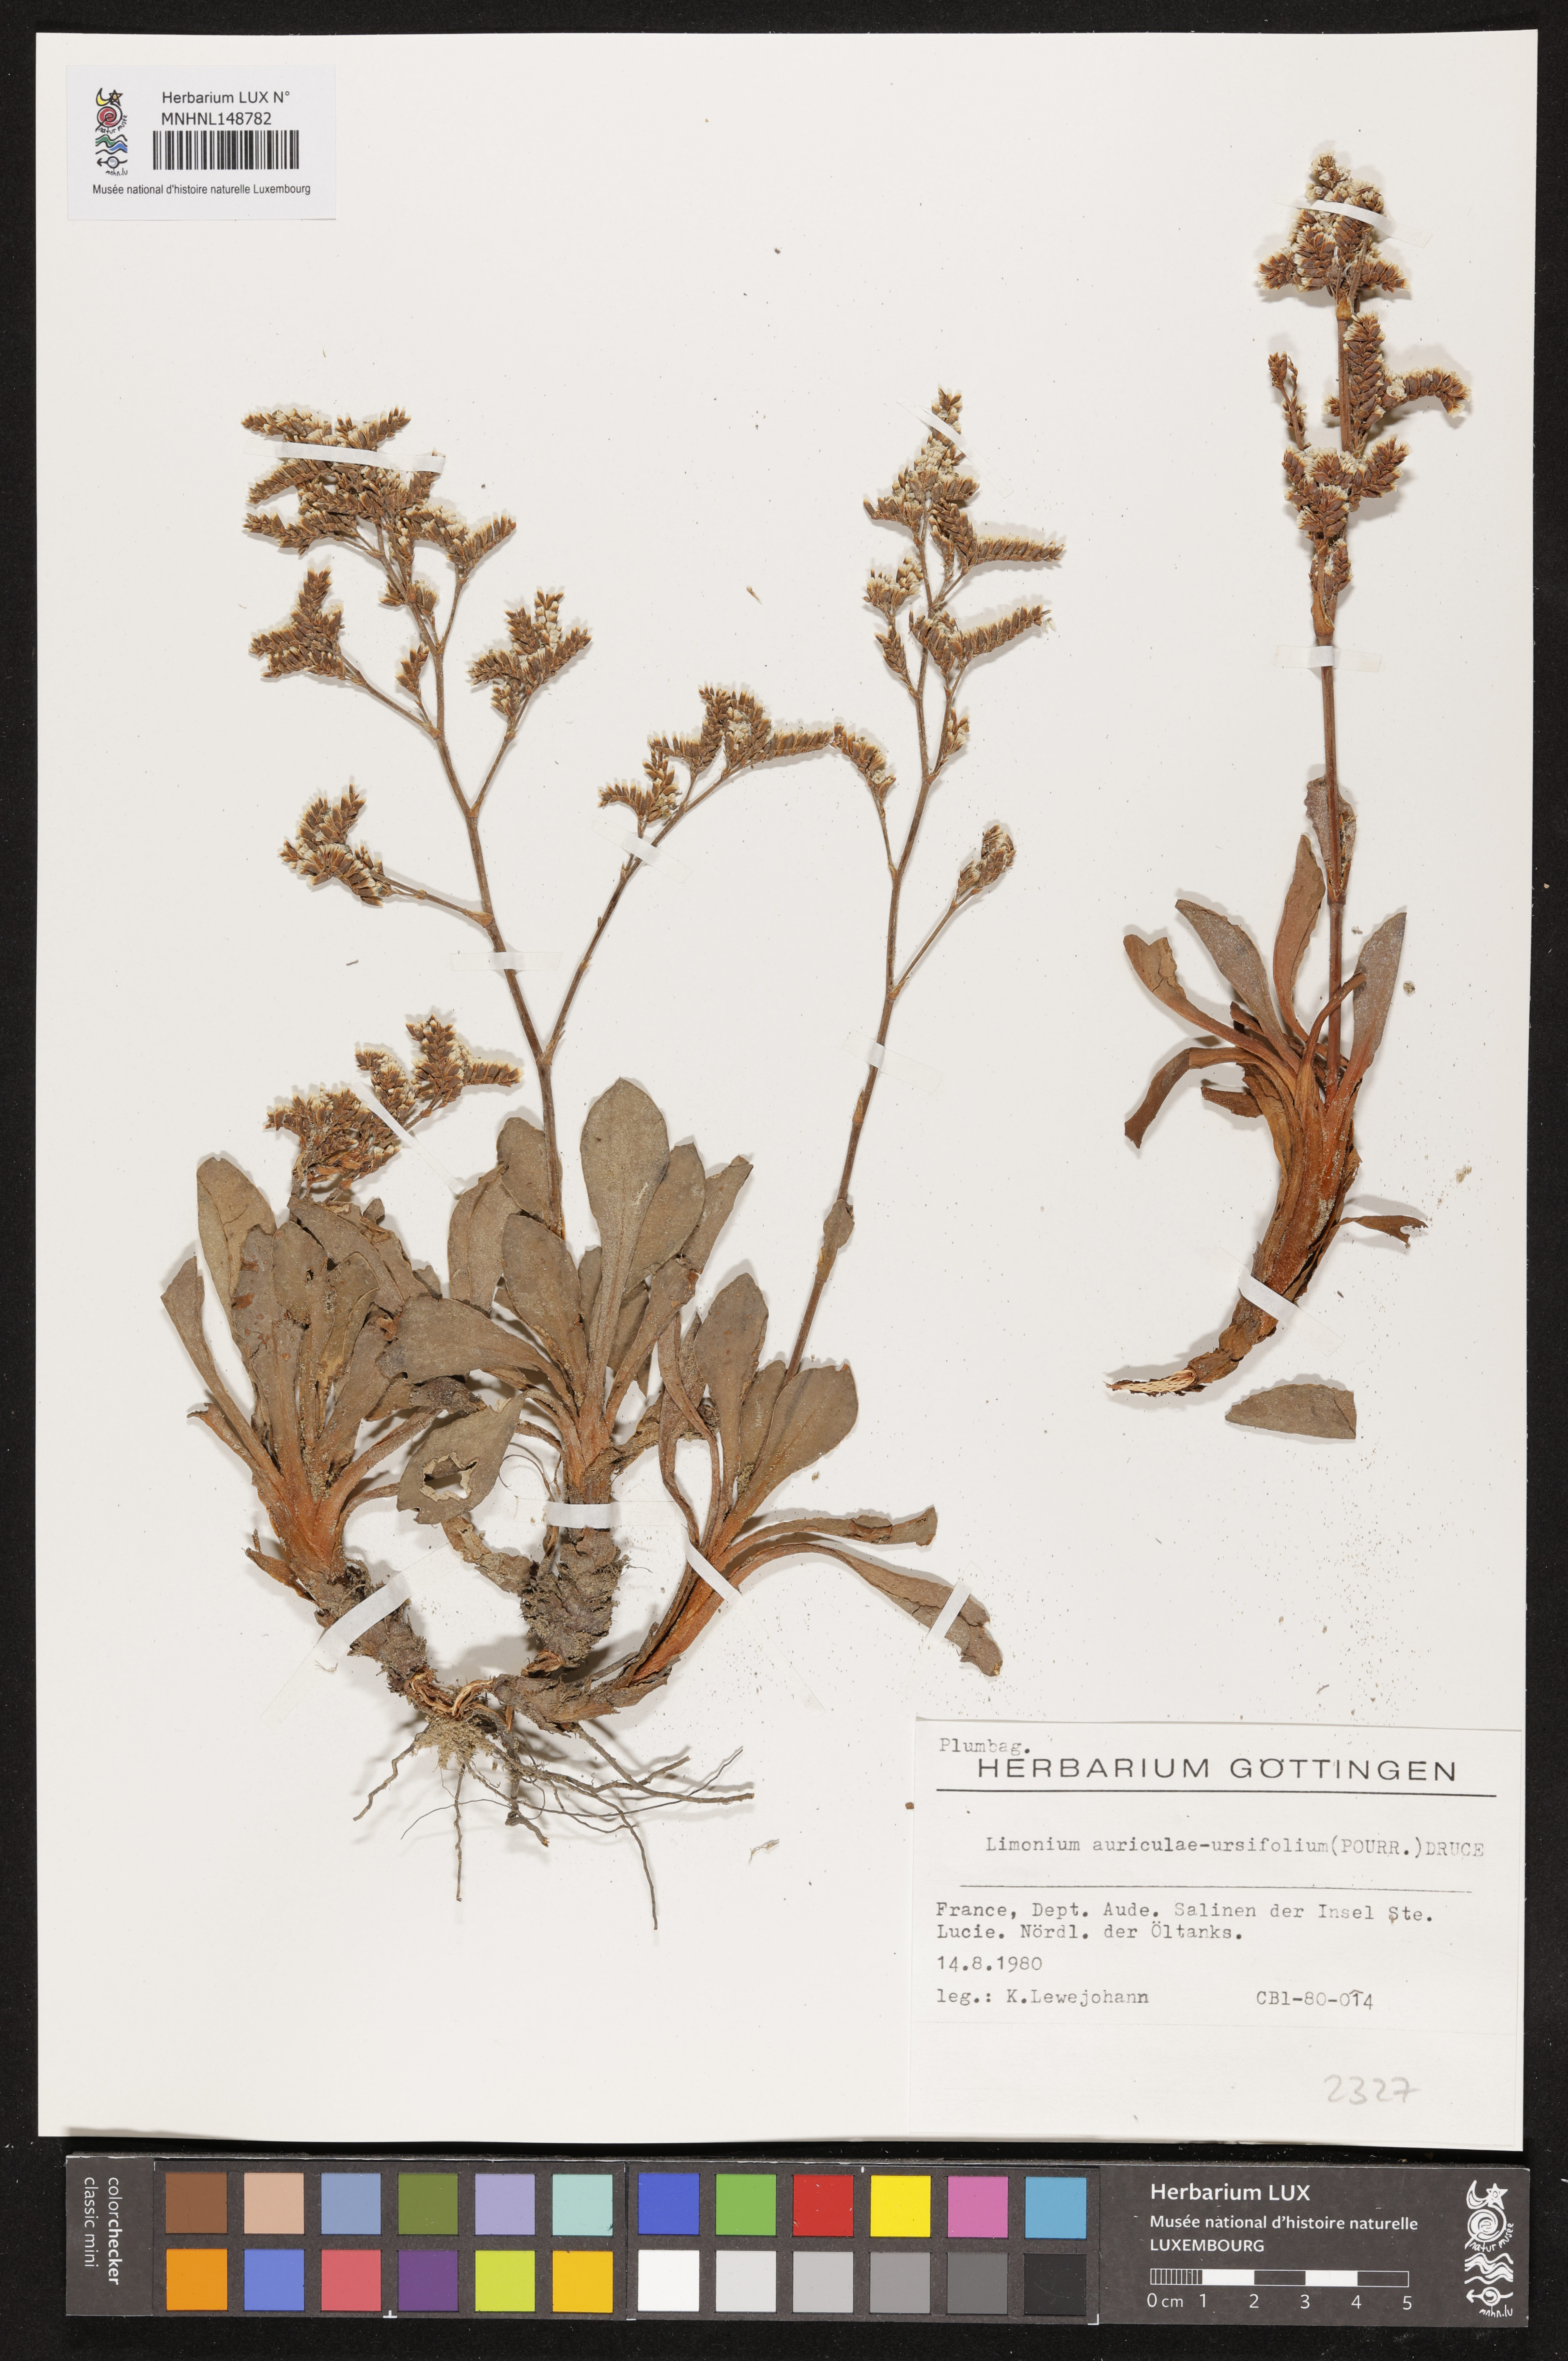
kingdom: Plantae
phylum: Tracheophyta
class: Magnoliopsida
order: Caryophyllales
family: Plumbaginaceae
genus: Limonium
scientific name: Limonium auriculae-ursifolium
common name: Broad-leaved sea-lavender
